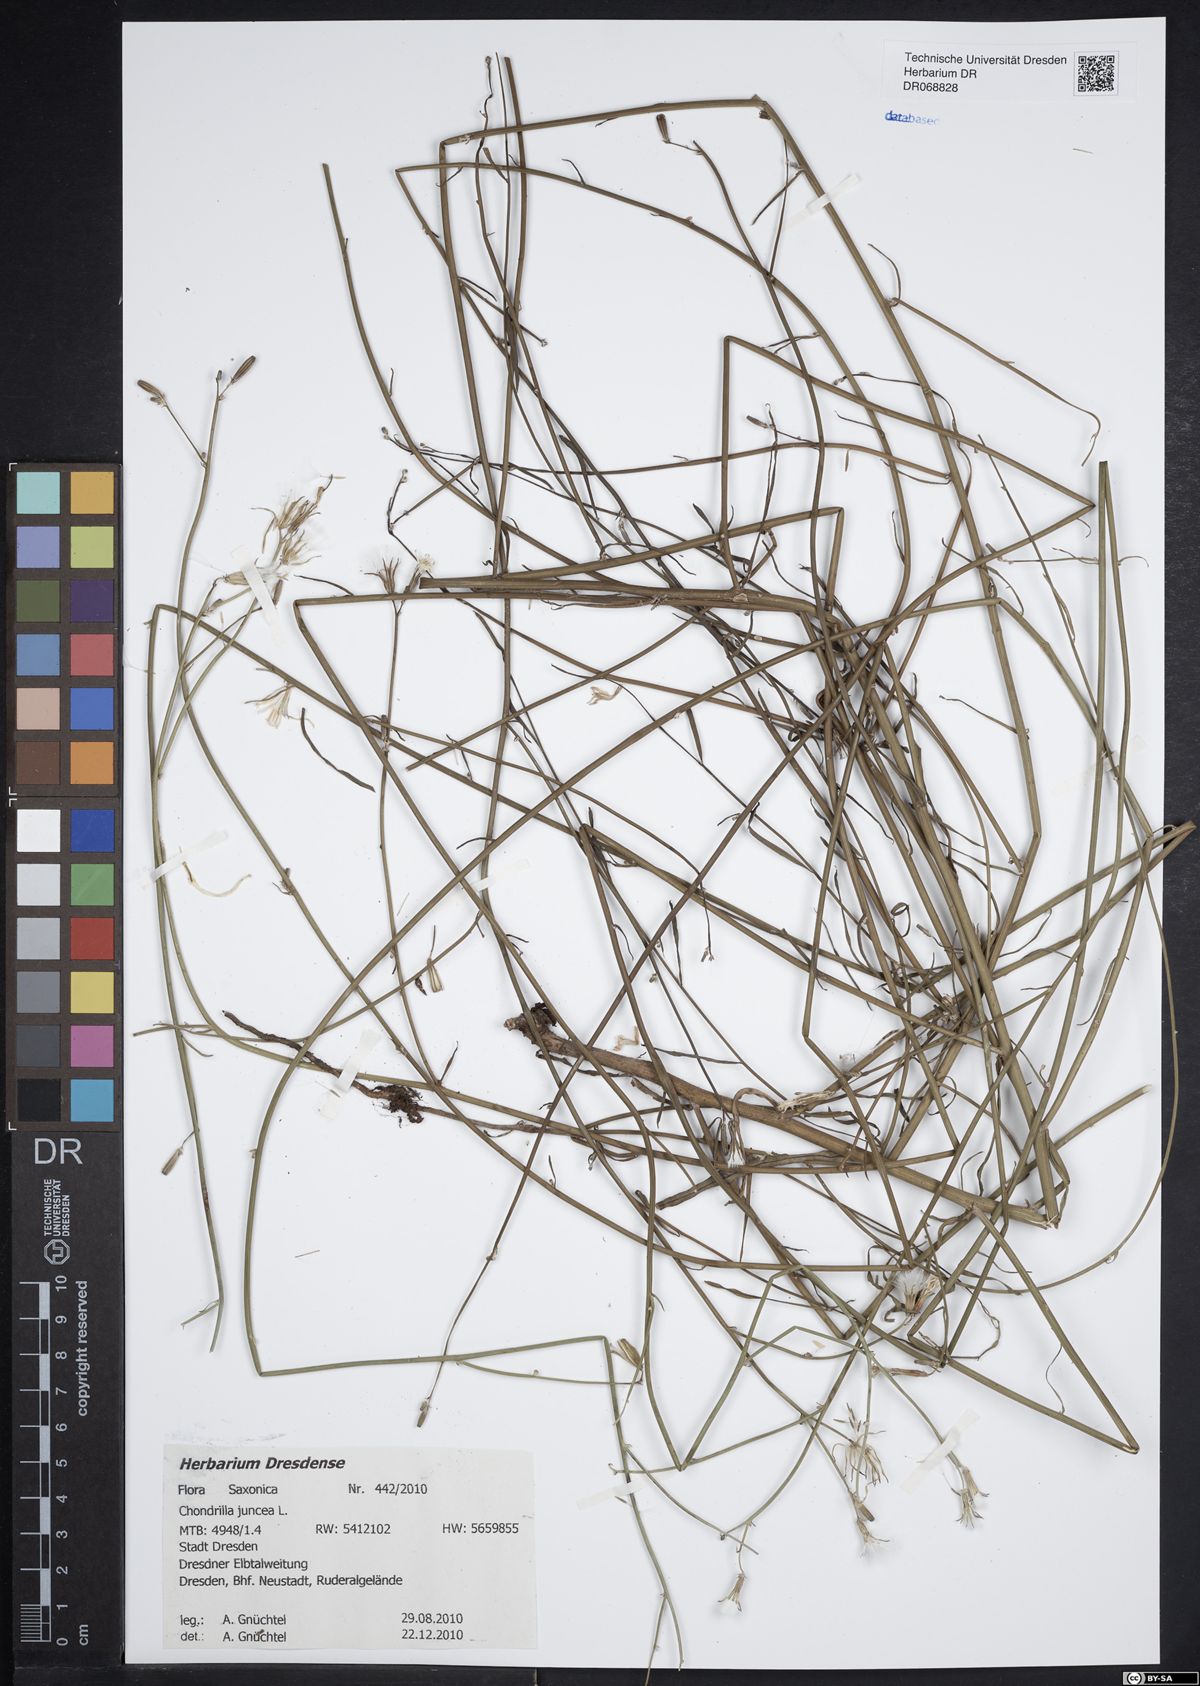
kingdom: Plantae
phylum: Tracheophyta
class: Magnoliopsida
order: Asterales
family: Asteraceae
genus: Chondrilla
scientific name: Chondrilla juncea
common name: Skeleton weed
